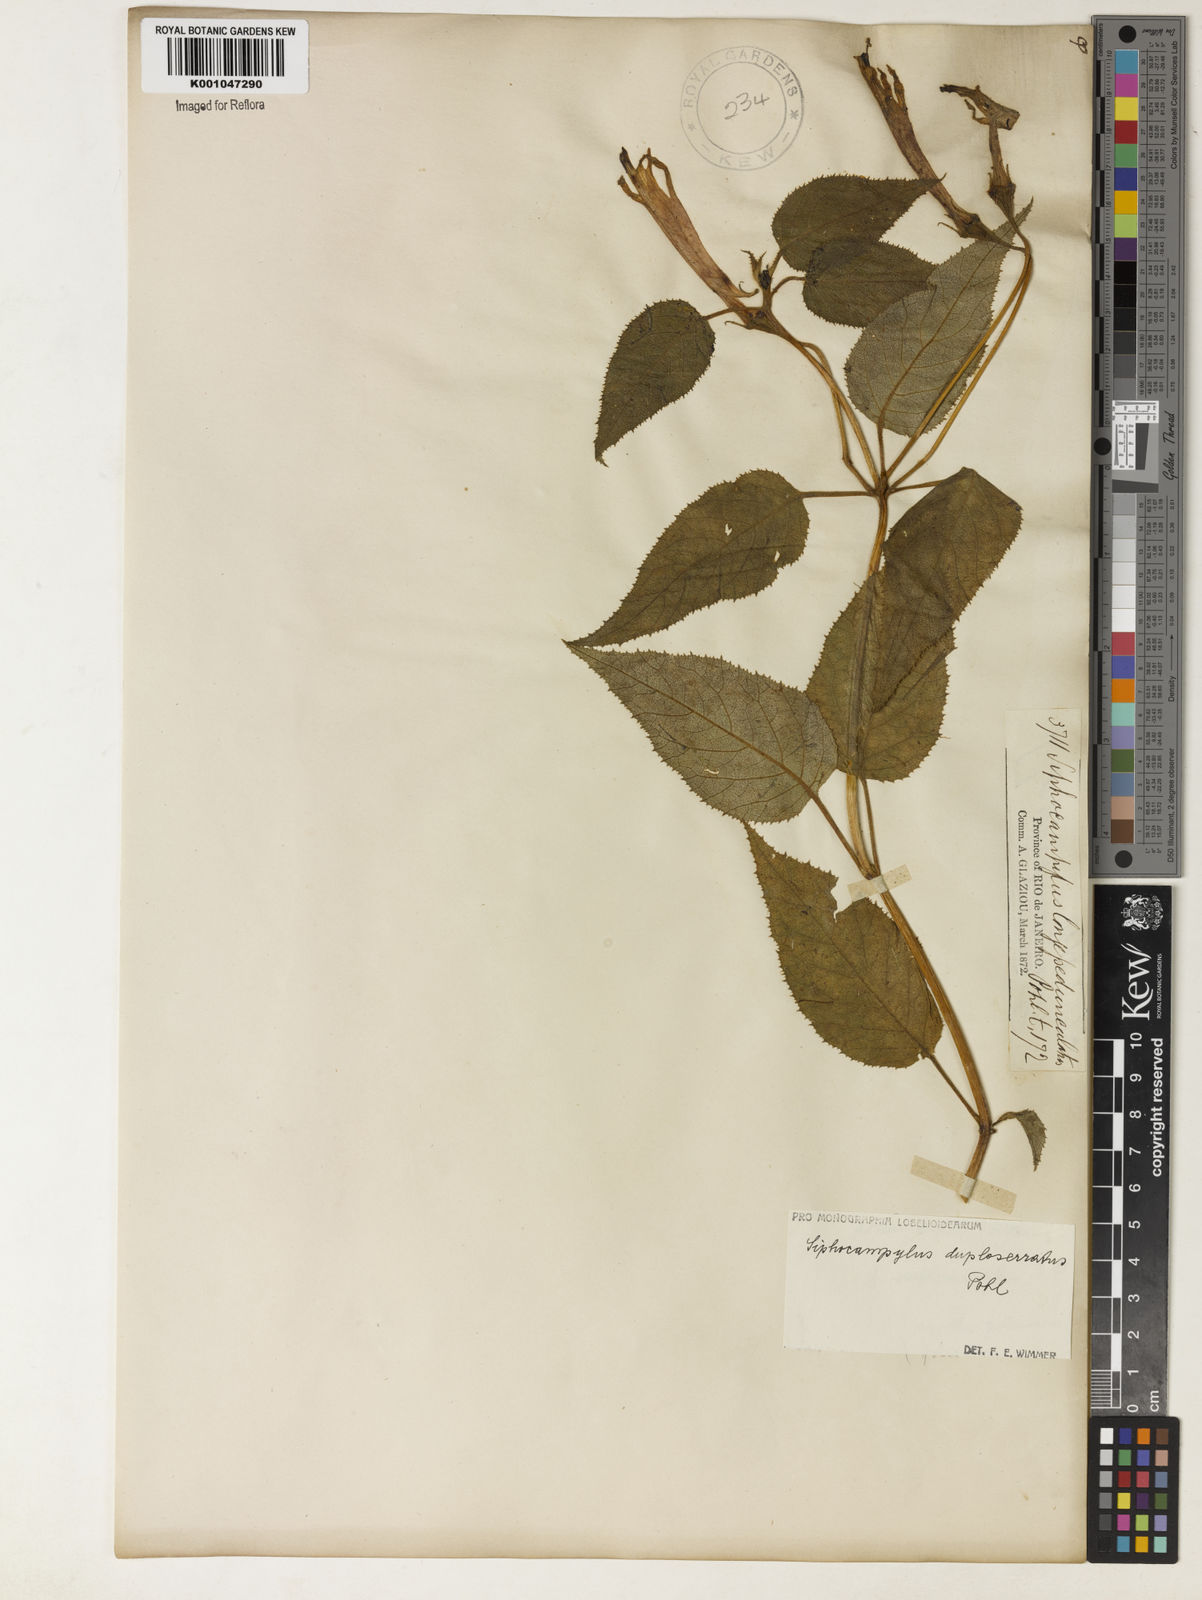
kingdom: Plantae
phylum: Tracheophyta
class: Magnoliopsida
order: Asterales
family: Campanulaceae
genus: Siphocampylus
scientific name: Siphocampylus duploserratus
